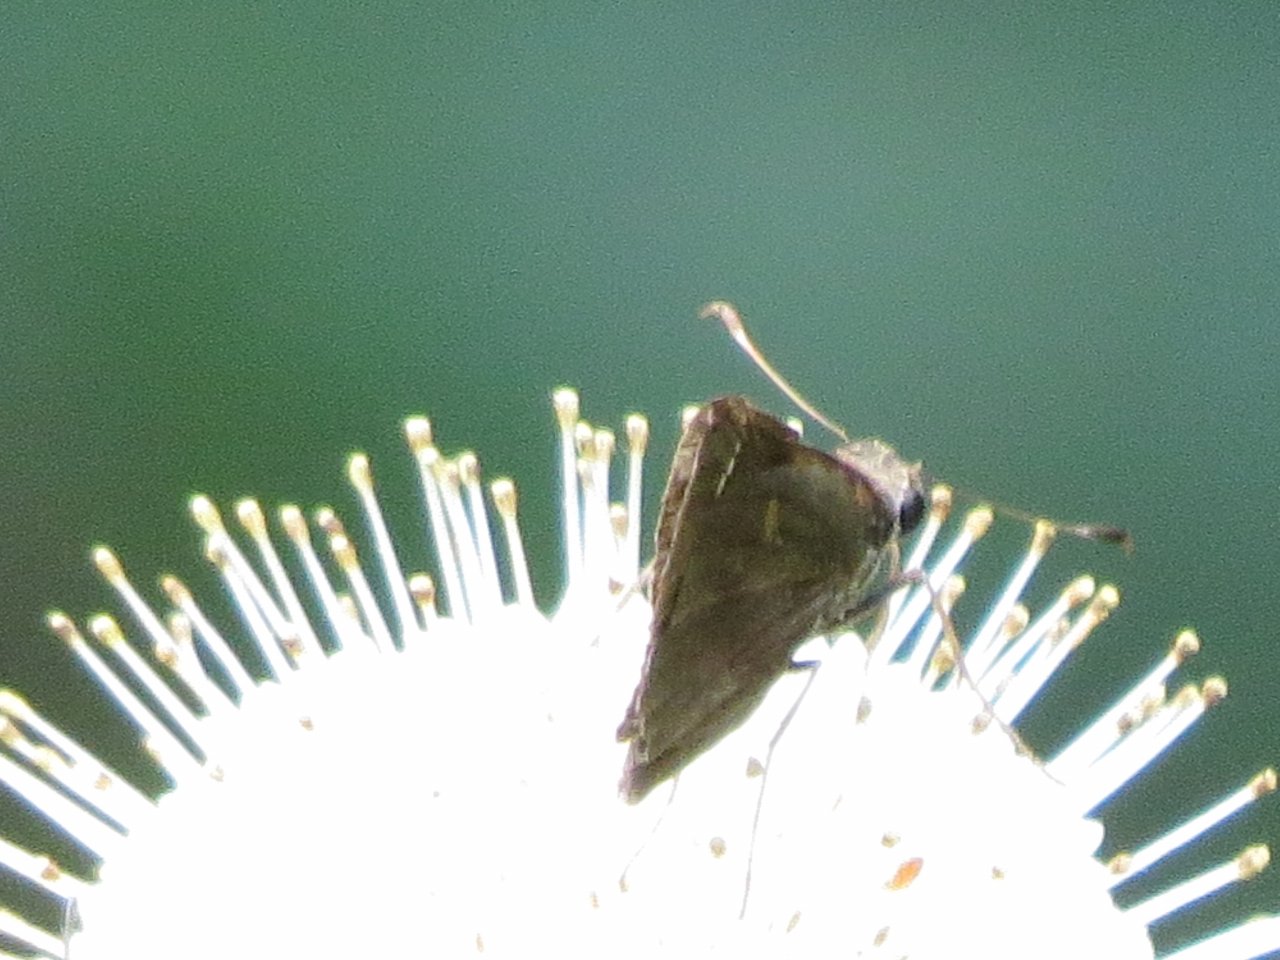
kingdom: Animalia
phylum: Arthropoda
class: Insecta
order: Lepidoptera
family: Hesperiidae
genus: Lerema
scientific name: Lerema accius
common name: Clouded Skipper
